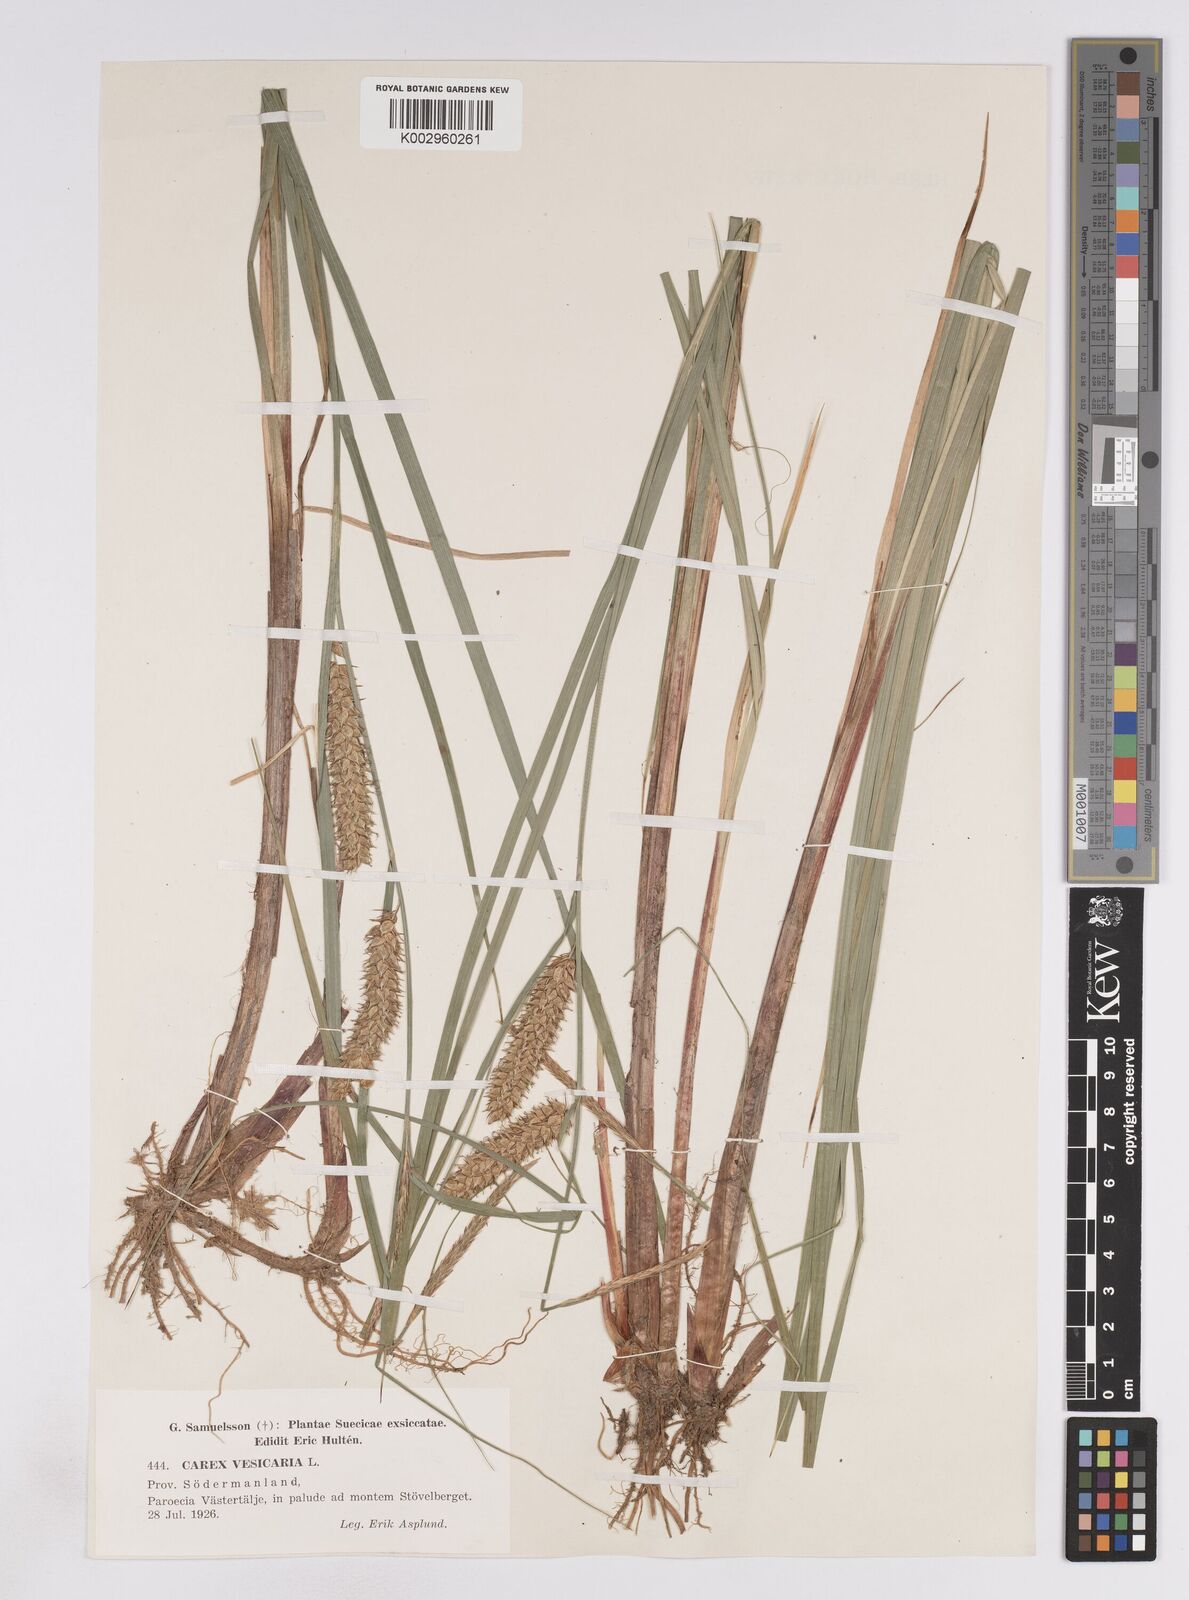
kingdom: Plantae
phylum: Tracheophyta
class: Liliopsida
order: Poales
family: Cyperaceae
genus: Carex
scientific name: Carex vesicaria
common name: Bladder-sedge
